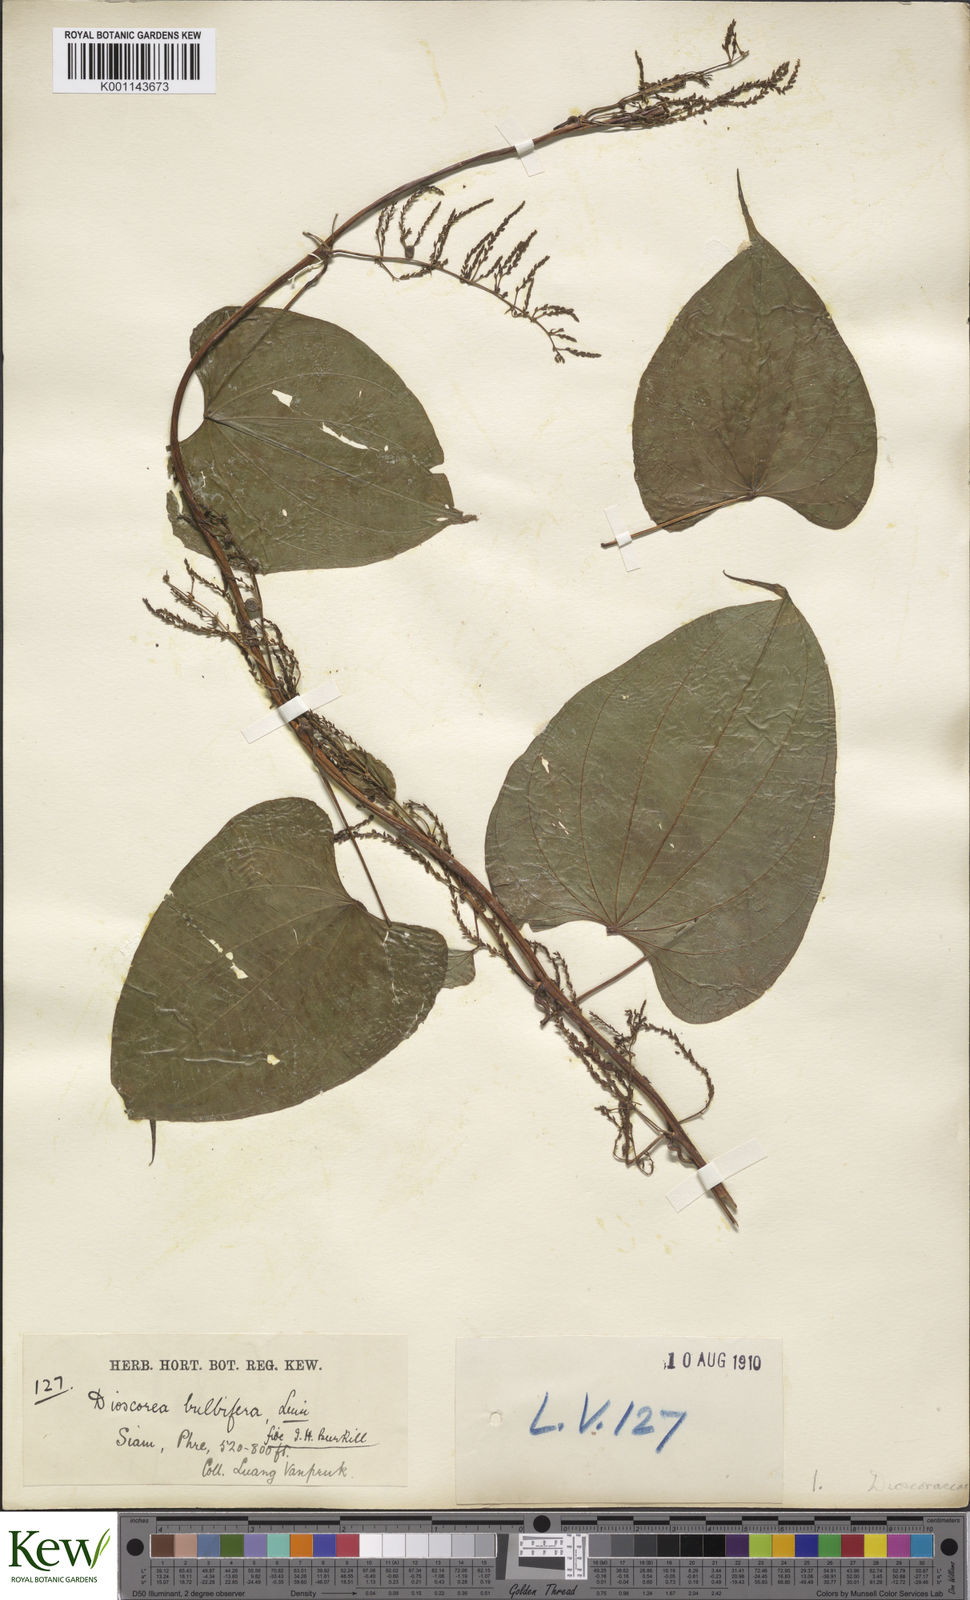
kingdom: Plantae
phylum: Tracheophyta
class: Liliopsida
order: Dioscoreales
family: Dioscoreaceae
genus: Dioscorea
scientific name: Dioscorea bulbifera
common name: Air yam
